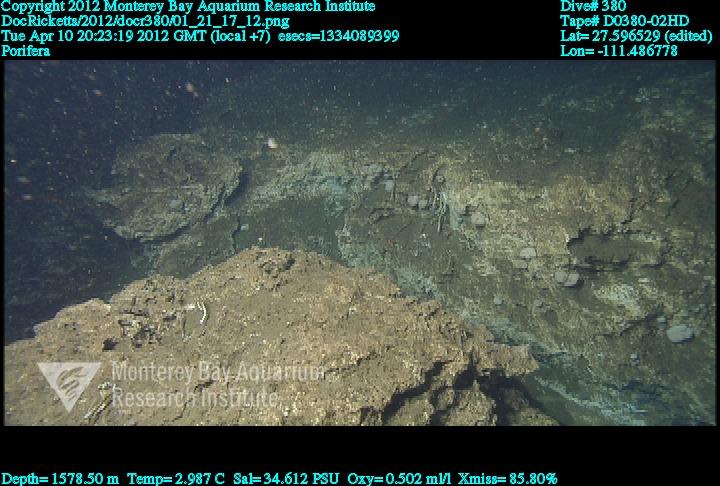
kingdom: Animalia
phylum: Porifera
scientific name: Porifera
